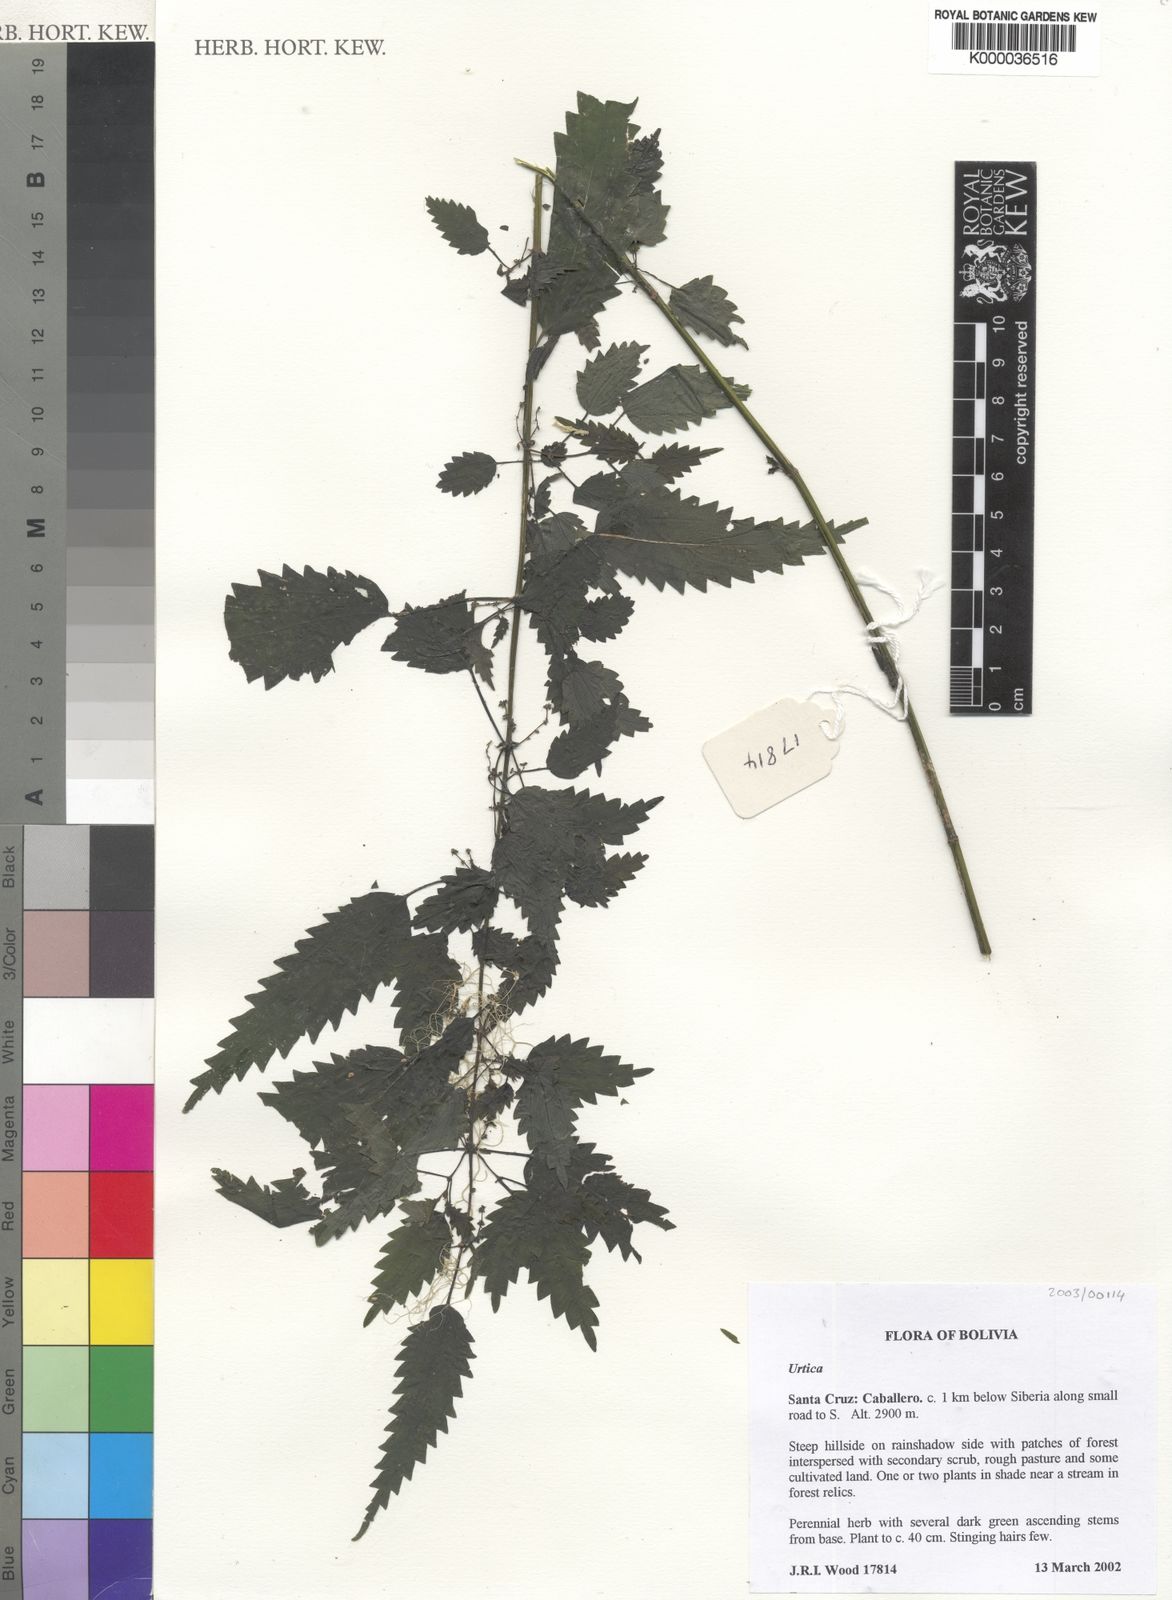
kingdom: Plantae
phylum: Tracheophyta
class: Magnoliopsida
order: Rosales
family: Urticaceae
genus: Urtica
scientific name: Urtica
